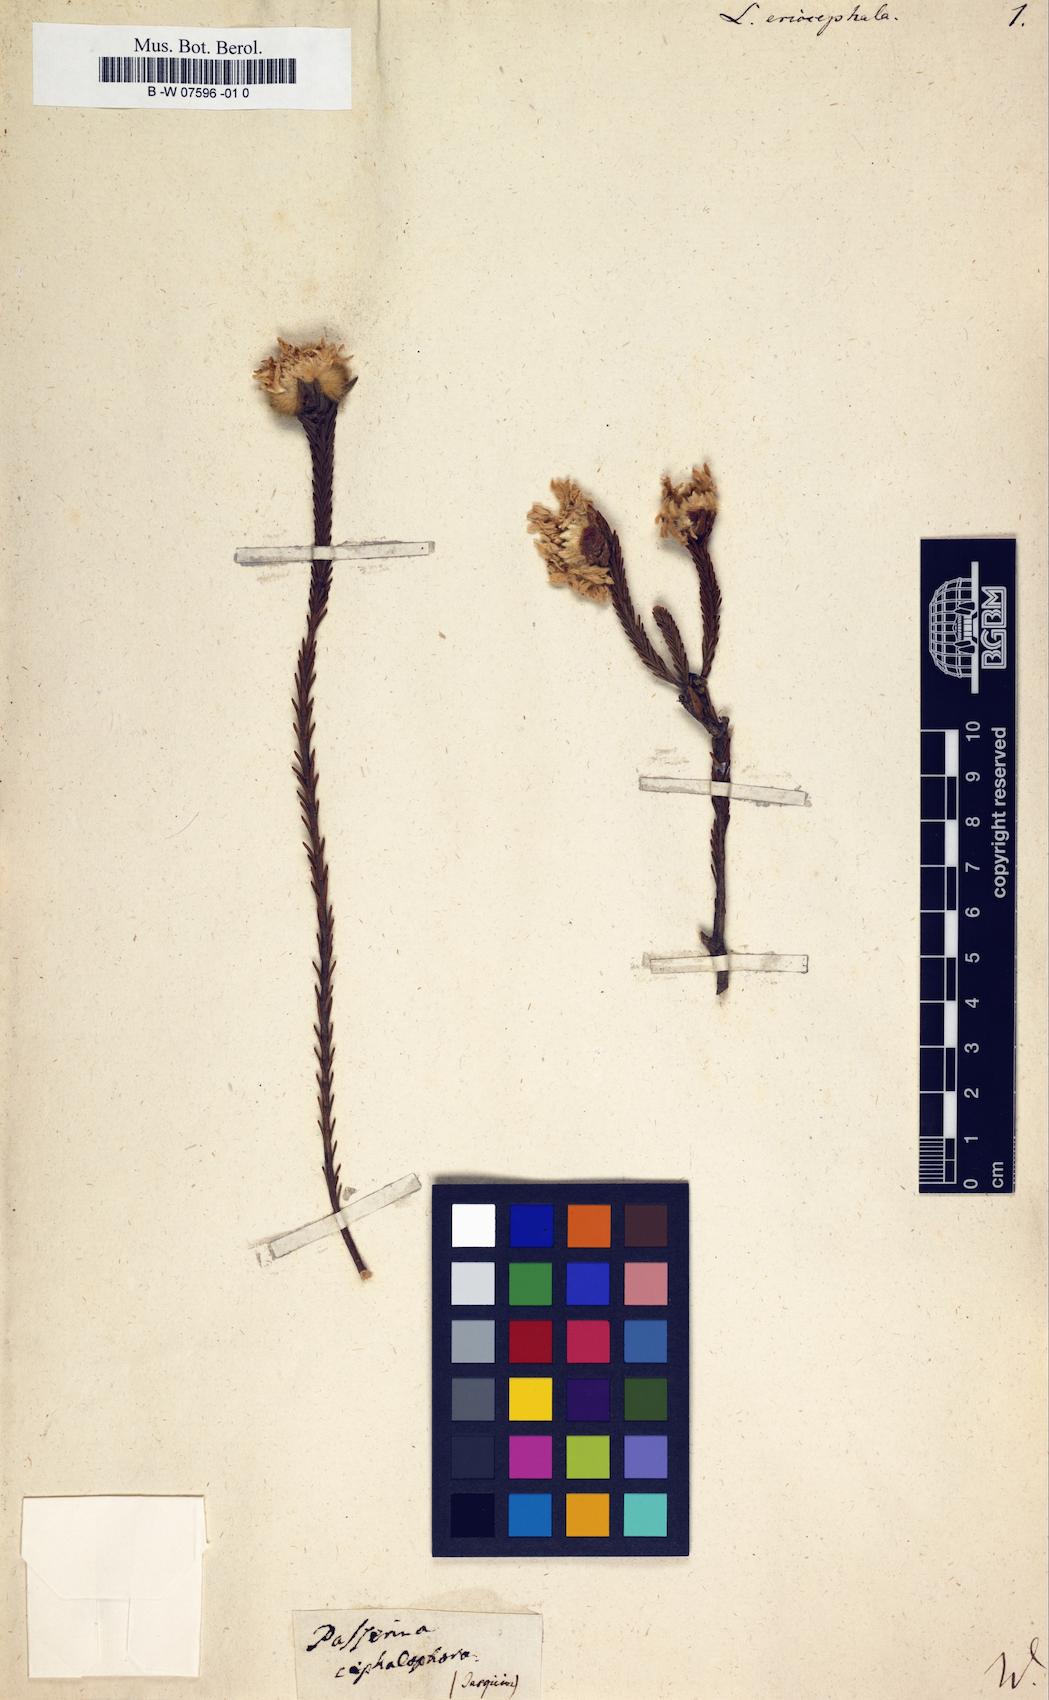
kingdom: Plantae
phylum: Tracheophyta
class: Magnoliopsida
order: Malvales
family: Thymelaeaceae
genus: Lachnaea
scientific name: Lachnaea eriocephala
